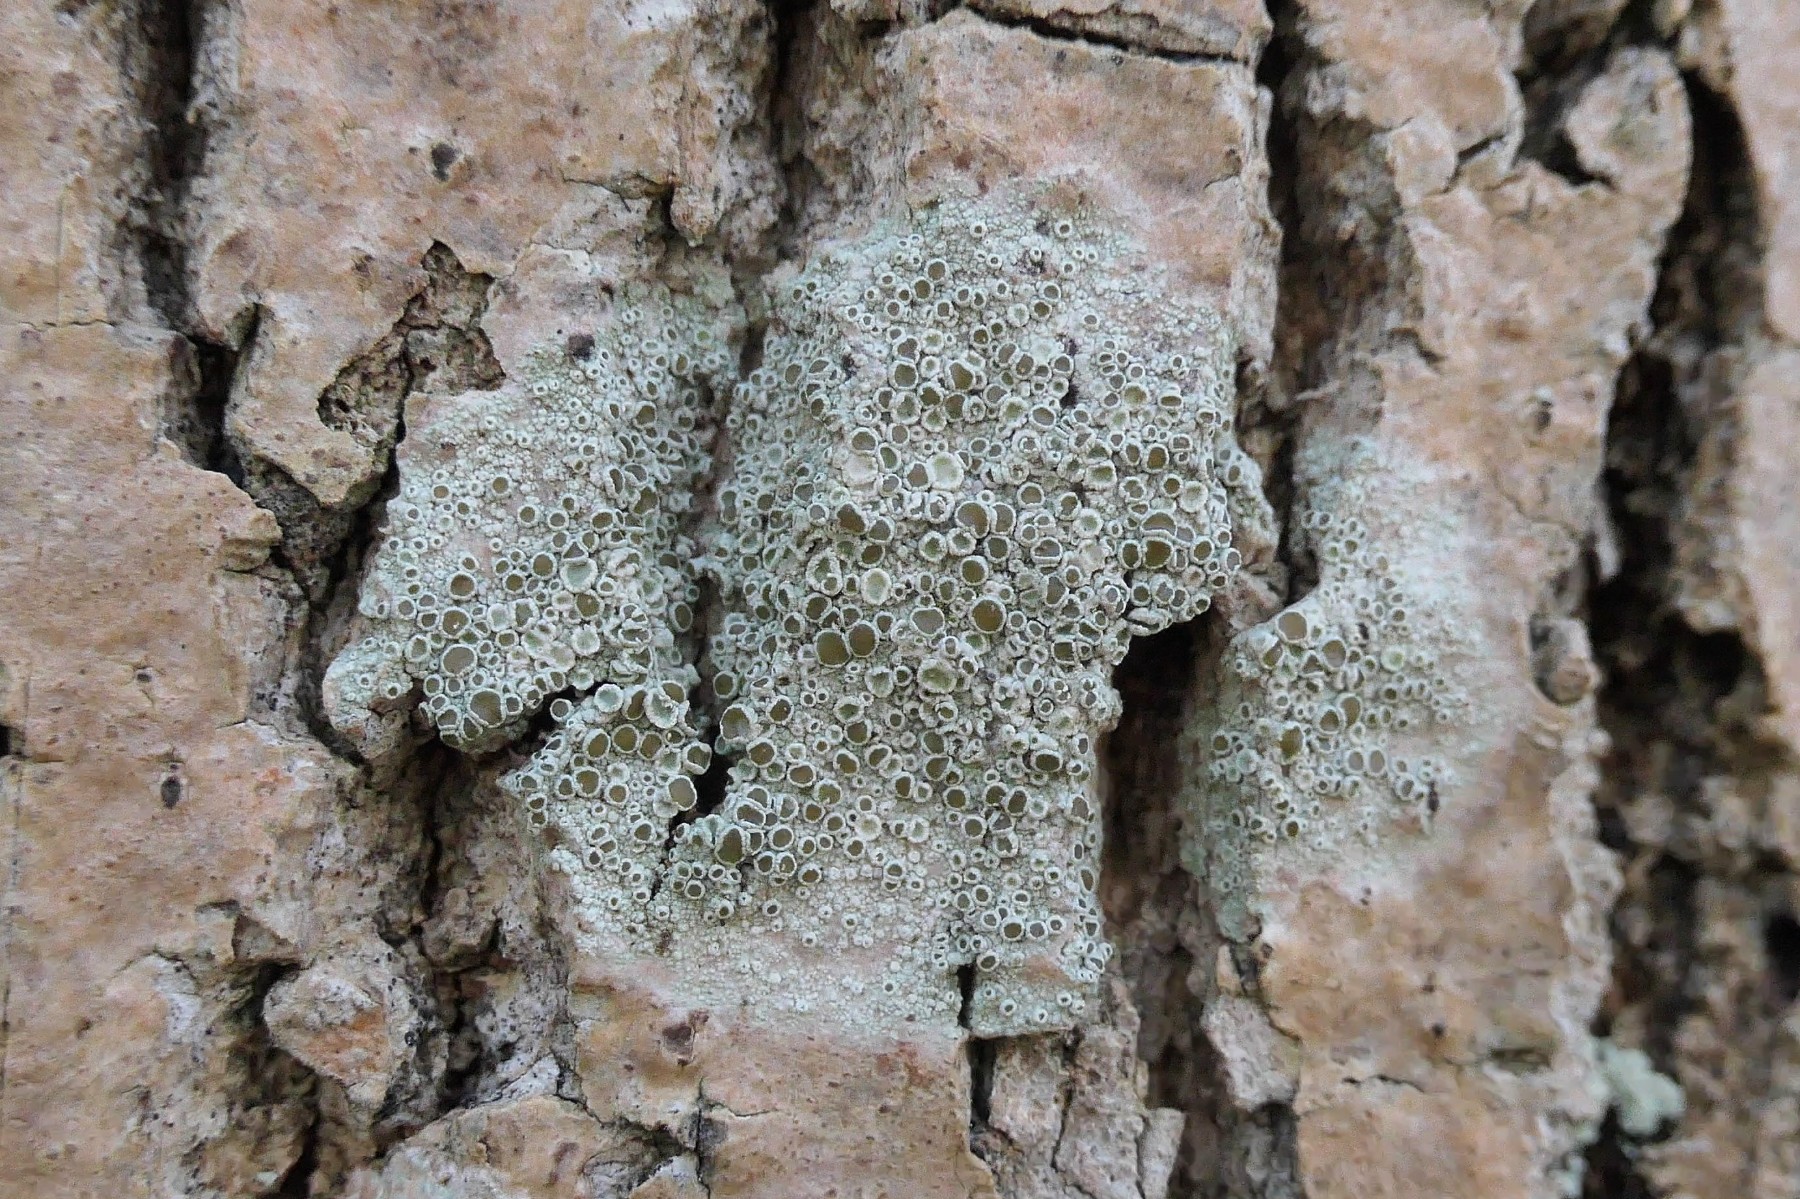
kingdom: Fungi
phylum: Ascomycota
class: Lecanoromycetes
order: Lecanorales
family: Lecanoraceae
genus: Lecanora
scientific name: Lecanora chlarotera
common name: brun kantskivelav
